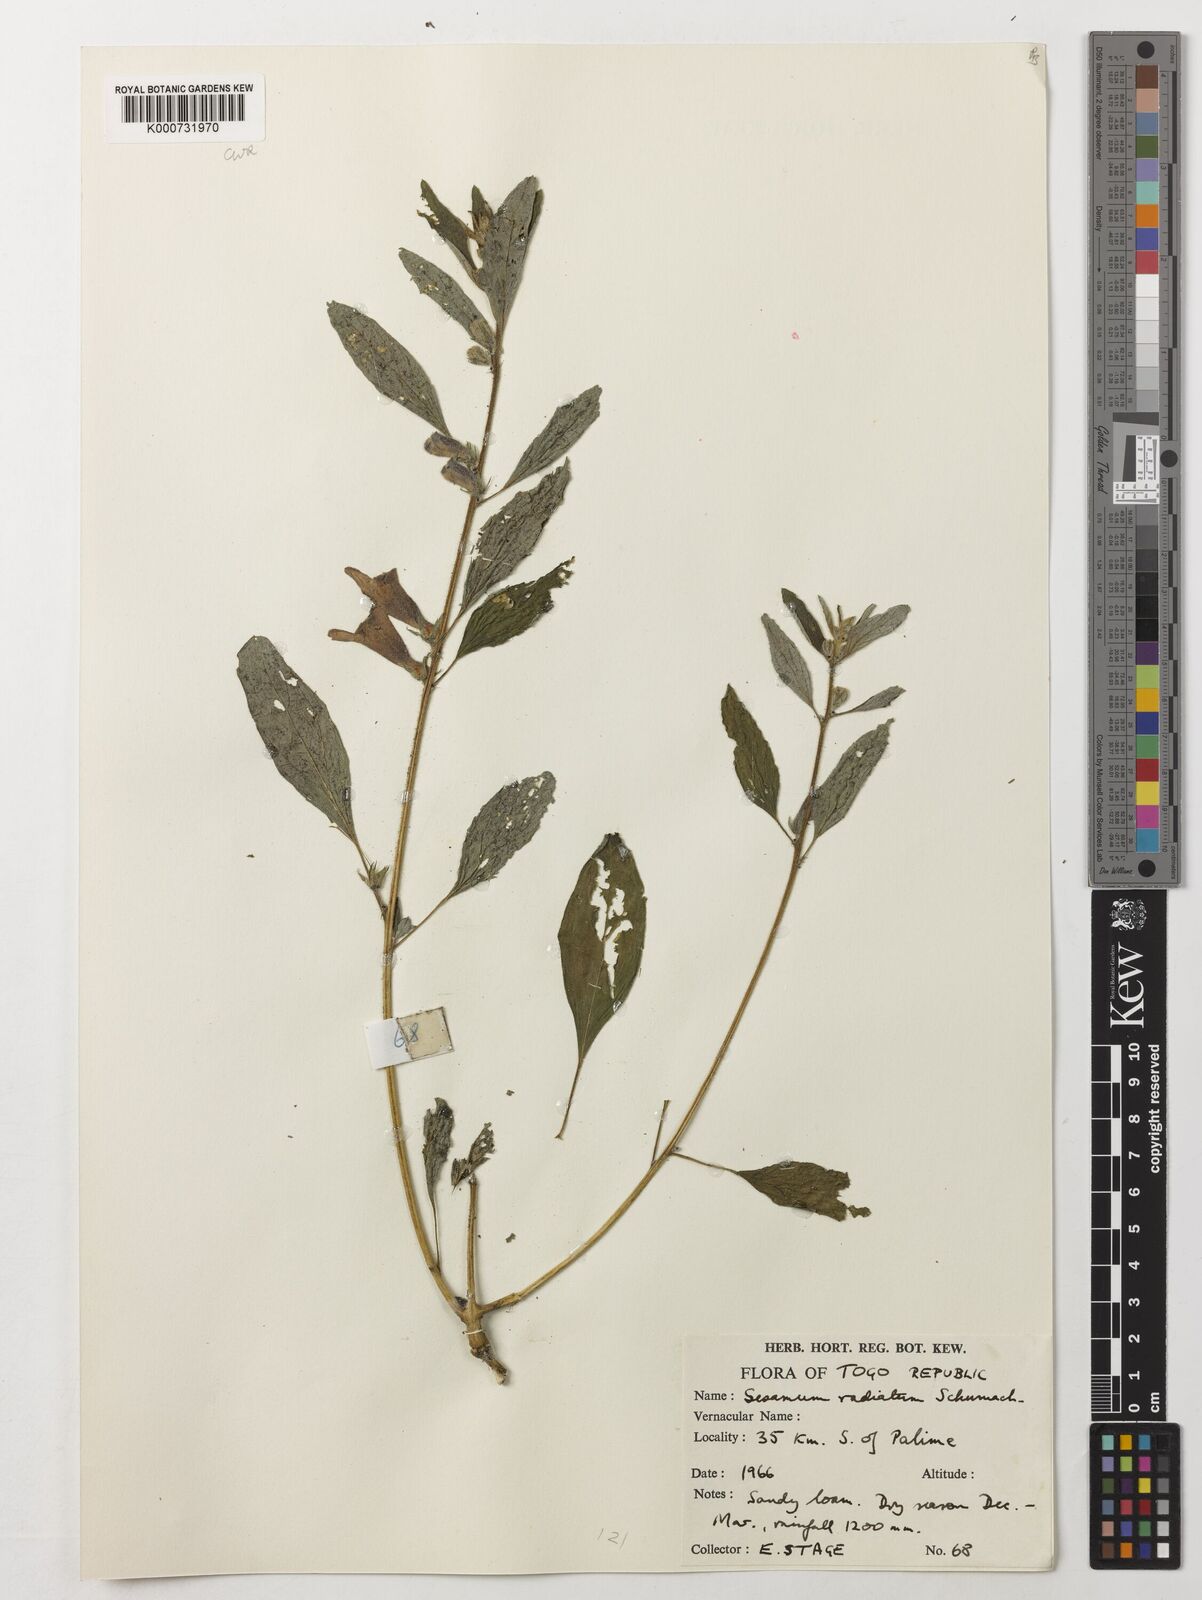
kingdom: Plantae
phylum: Tracheophyta
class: Magnoliopsida
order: Lamiales
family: Pedaliaceae
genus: Sesamum
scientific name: Sesamum
